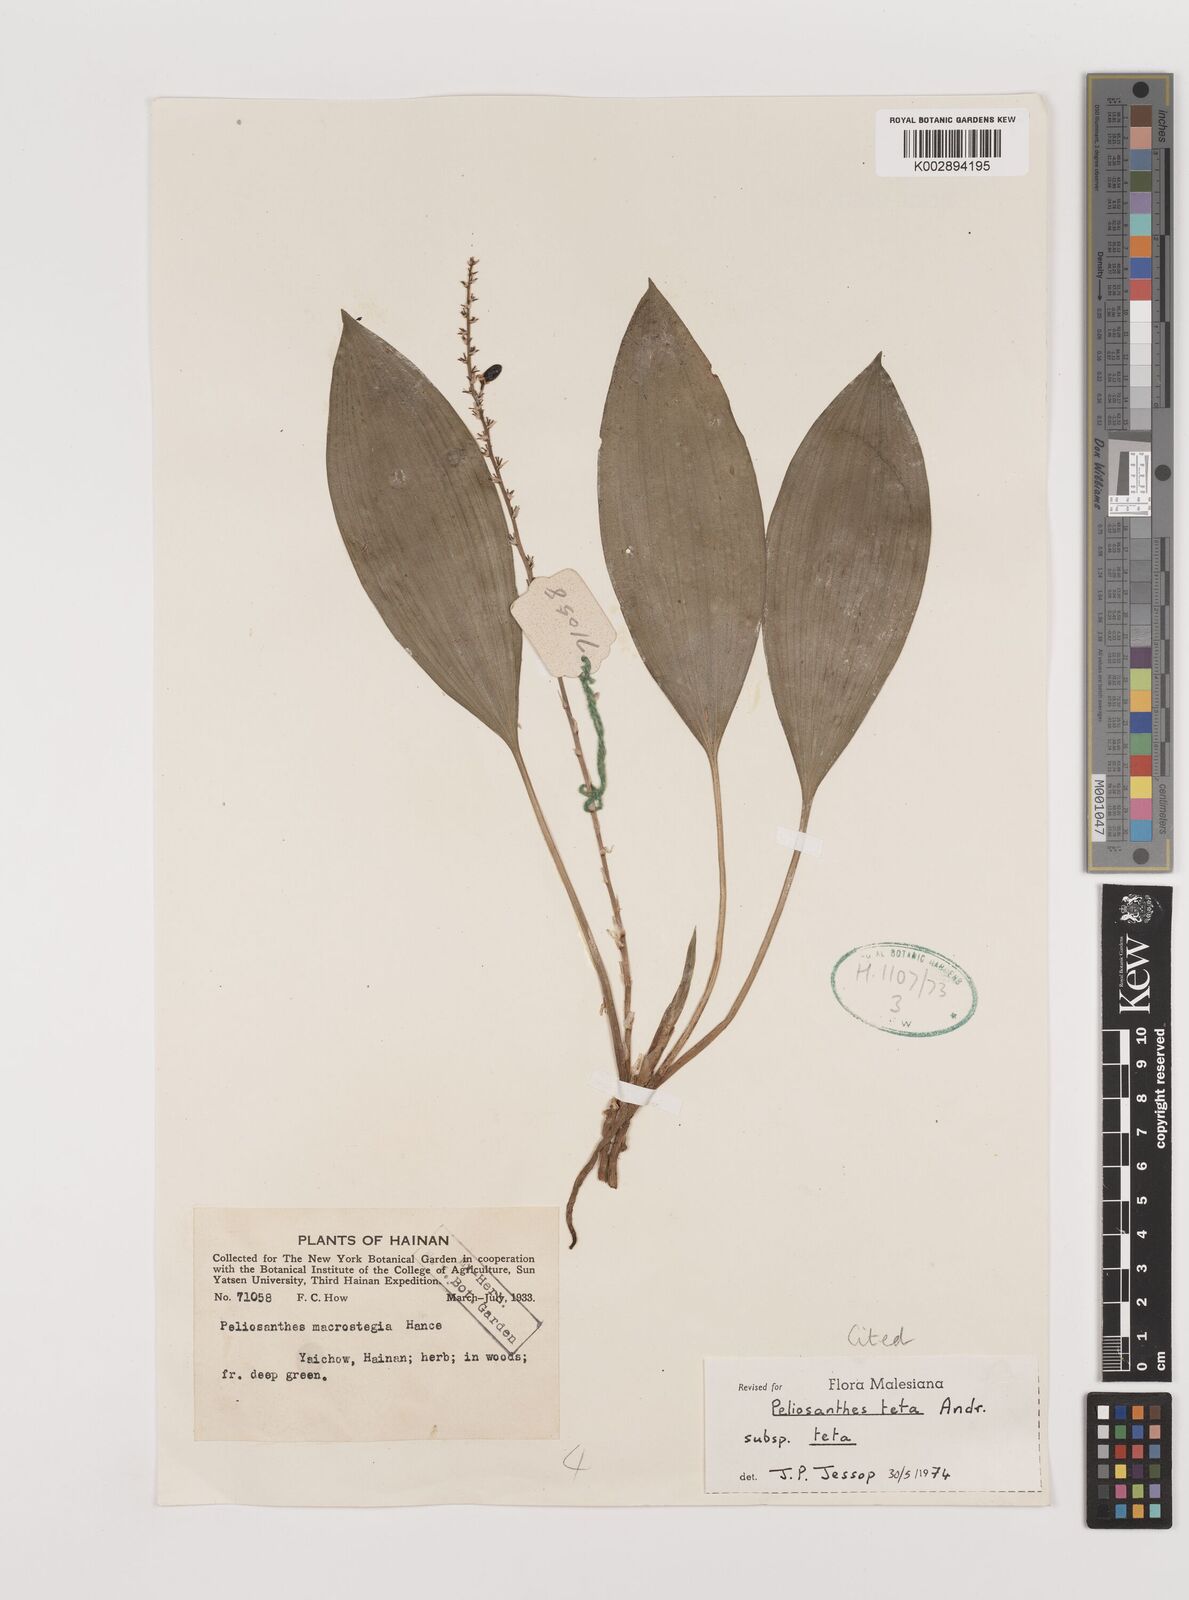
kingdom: Plantae
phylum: Tracheophyta
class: Liliopsida
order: Asparagales
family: Asparagaceae
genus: Peliosanthes
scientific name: Peliosanthes teta
